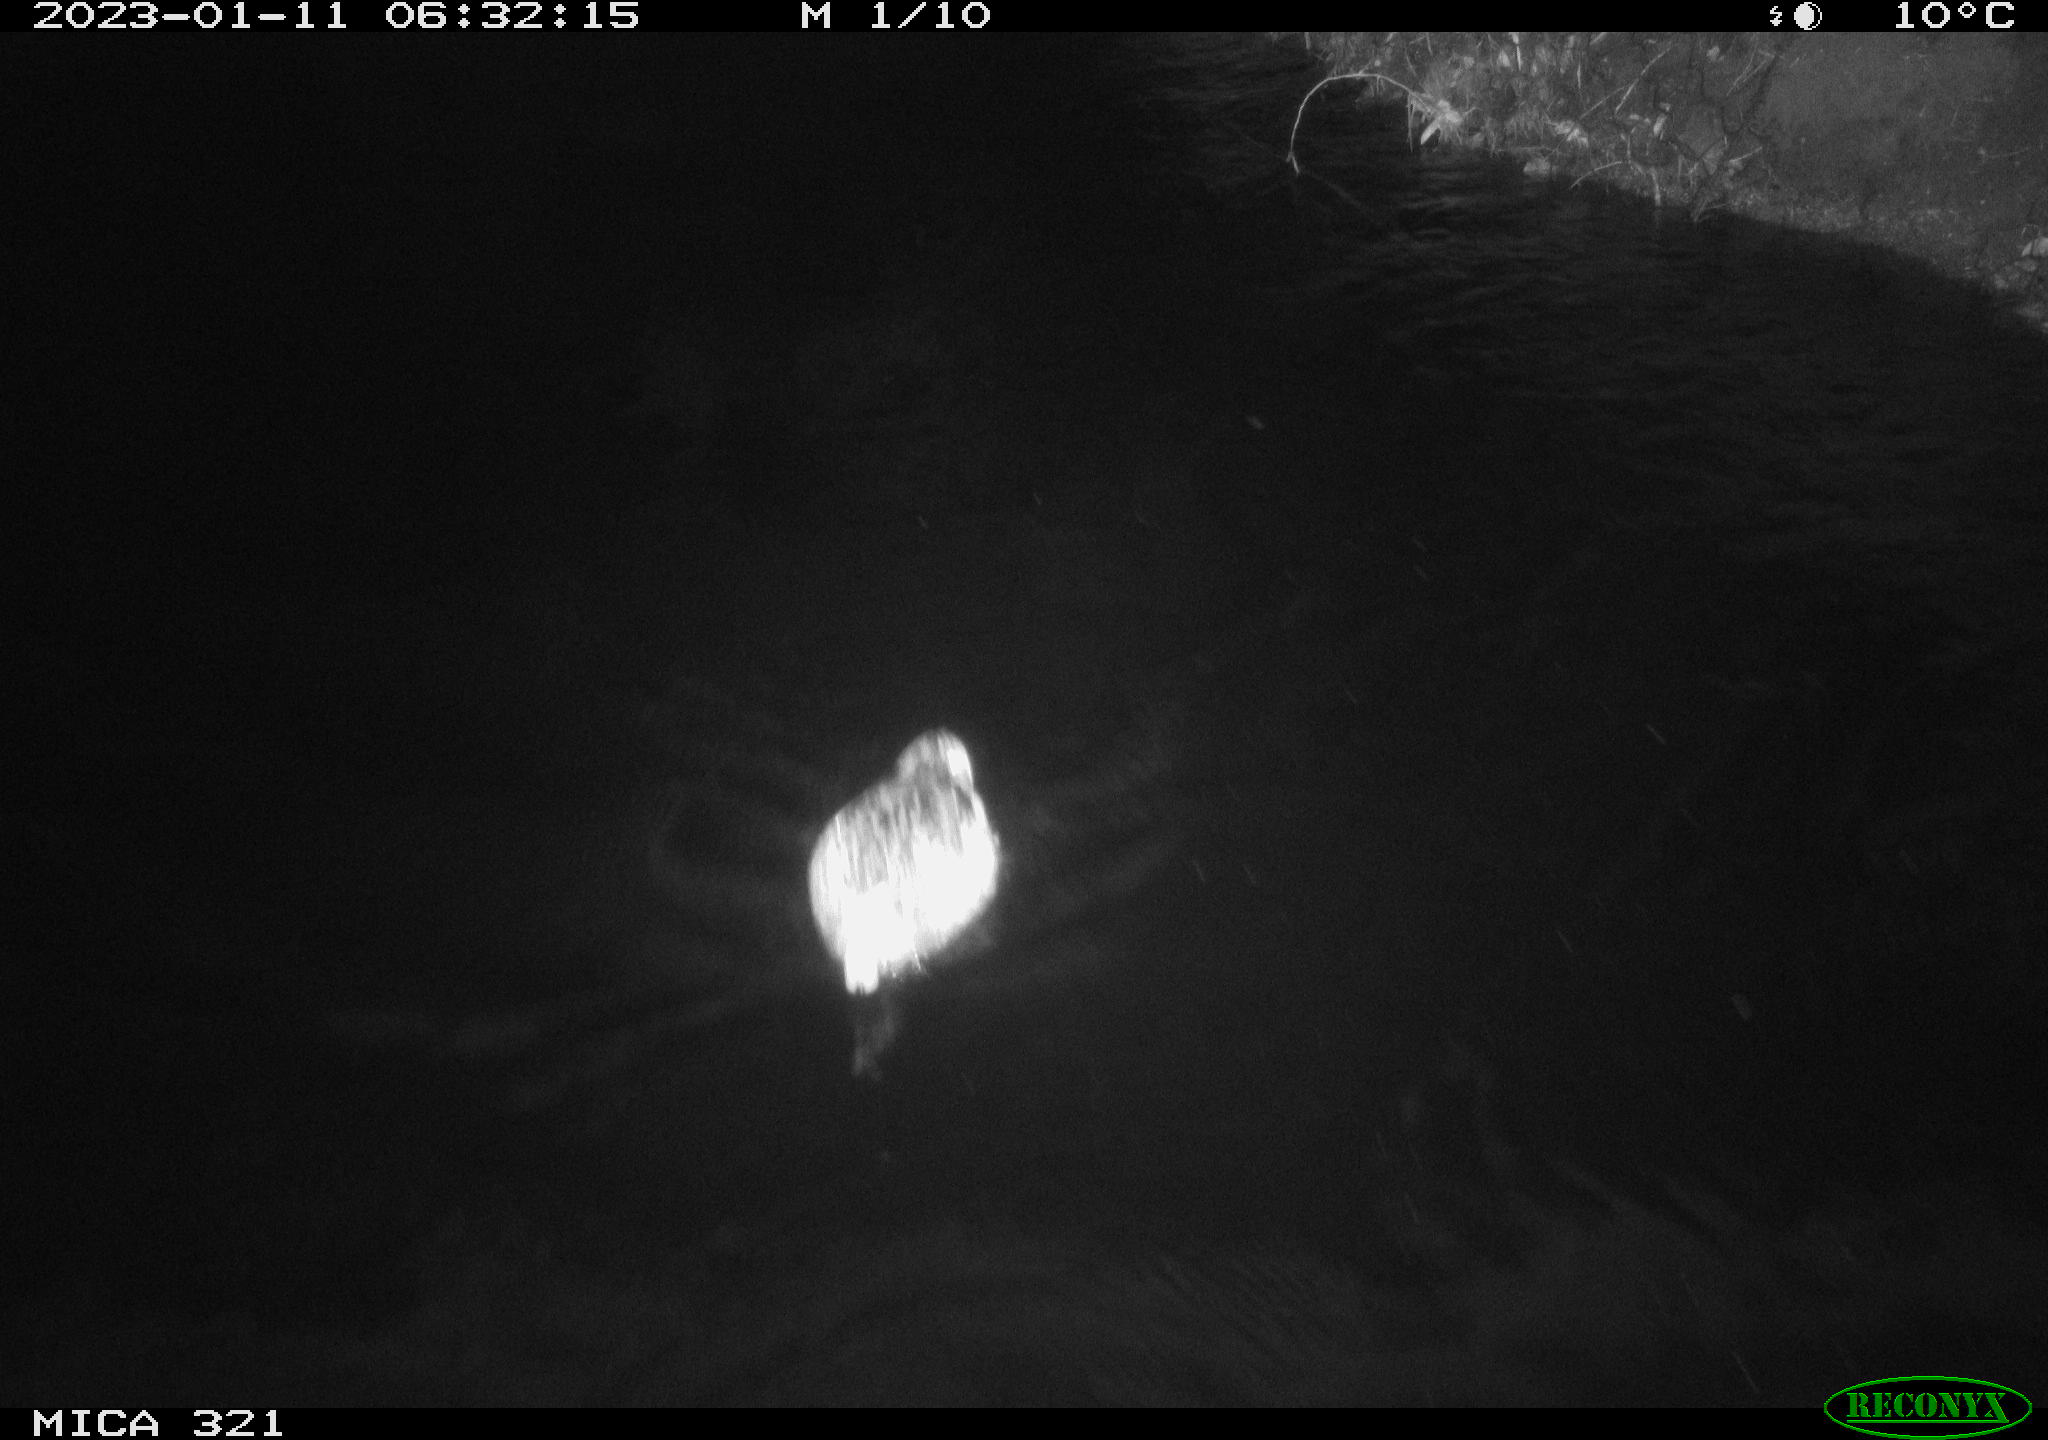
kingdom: Animalia
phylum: Chordata
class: Mammalia
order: Rodentia
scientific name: Rodentia
